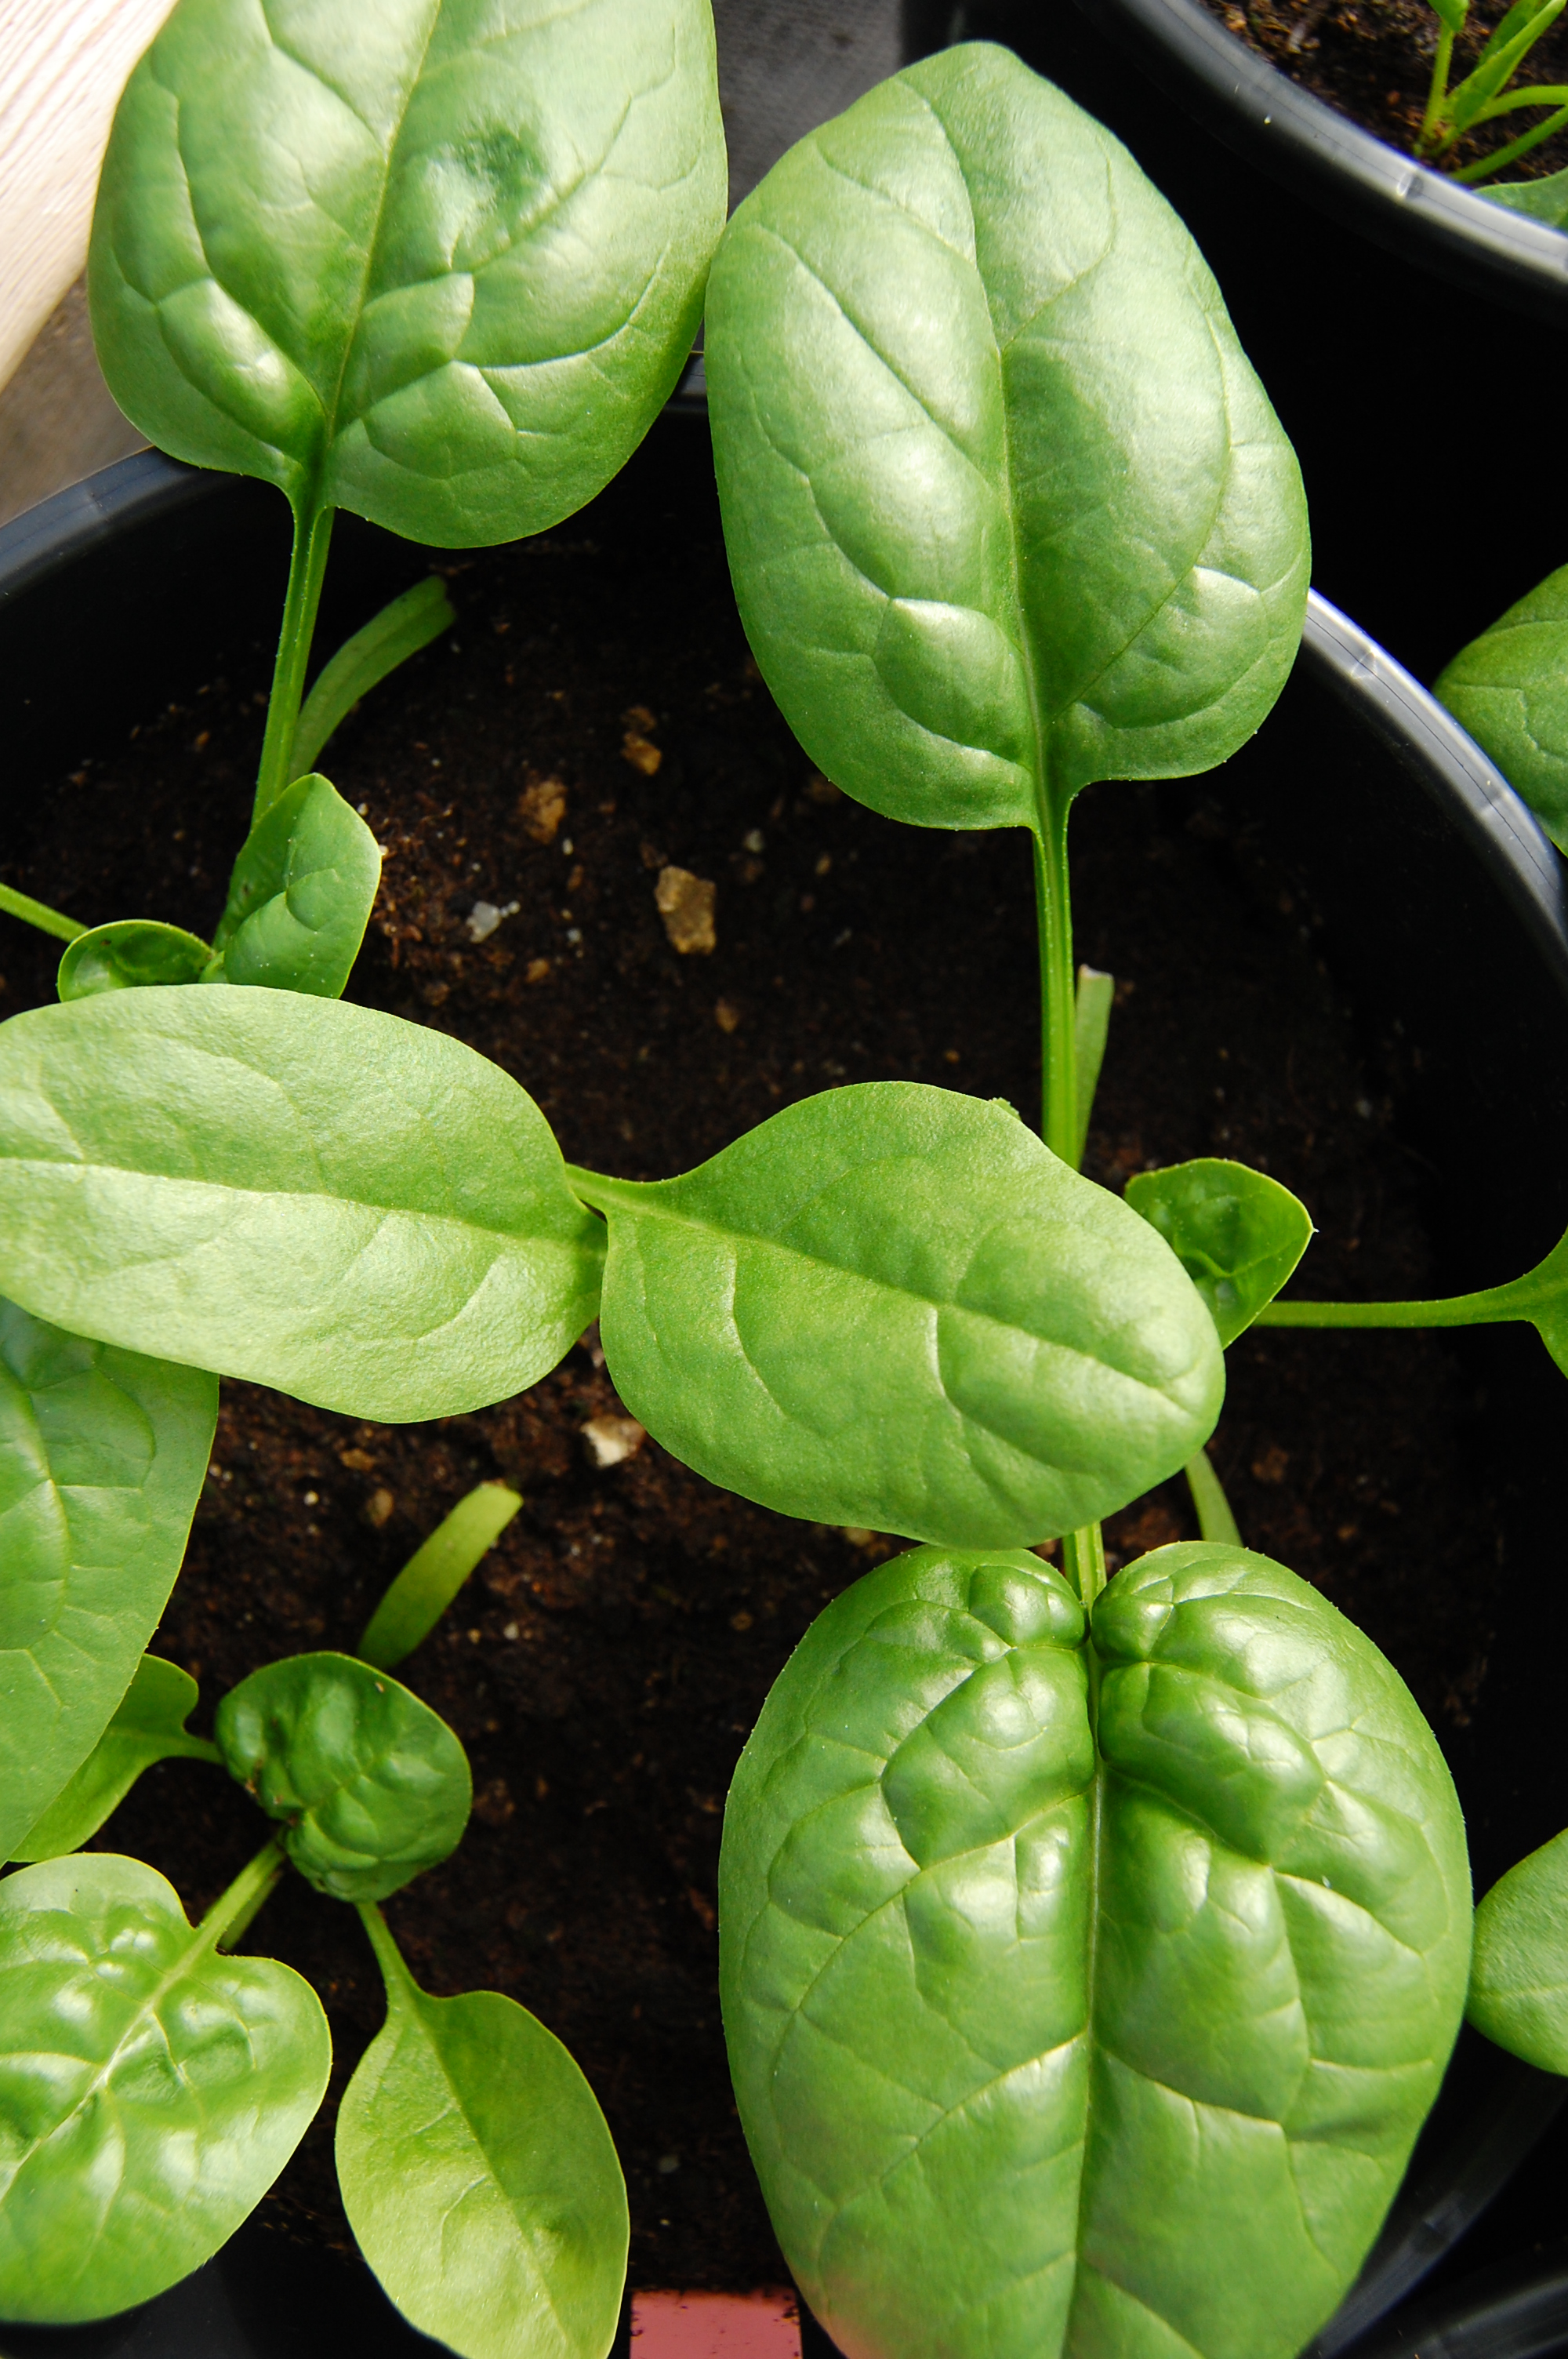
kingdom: Plantae
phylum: Tracheophyta
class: Magnoliopsida
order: Caryophyllales
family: Amaranthaceae
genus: Spinacia
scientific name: Spinacia oleracea
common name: Spinach
